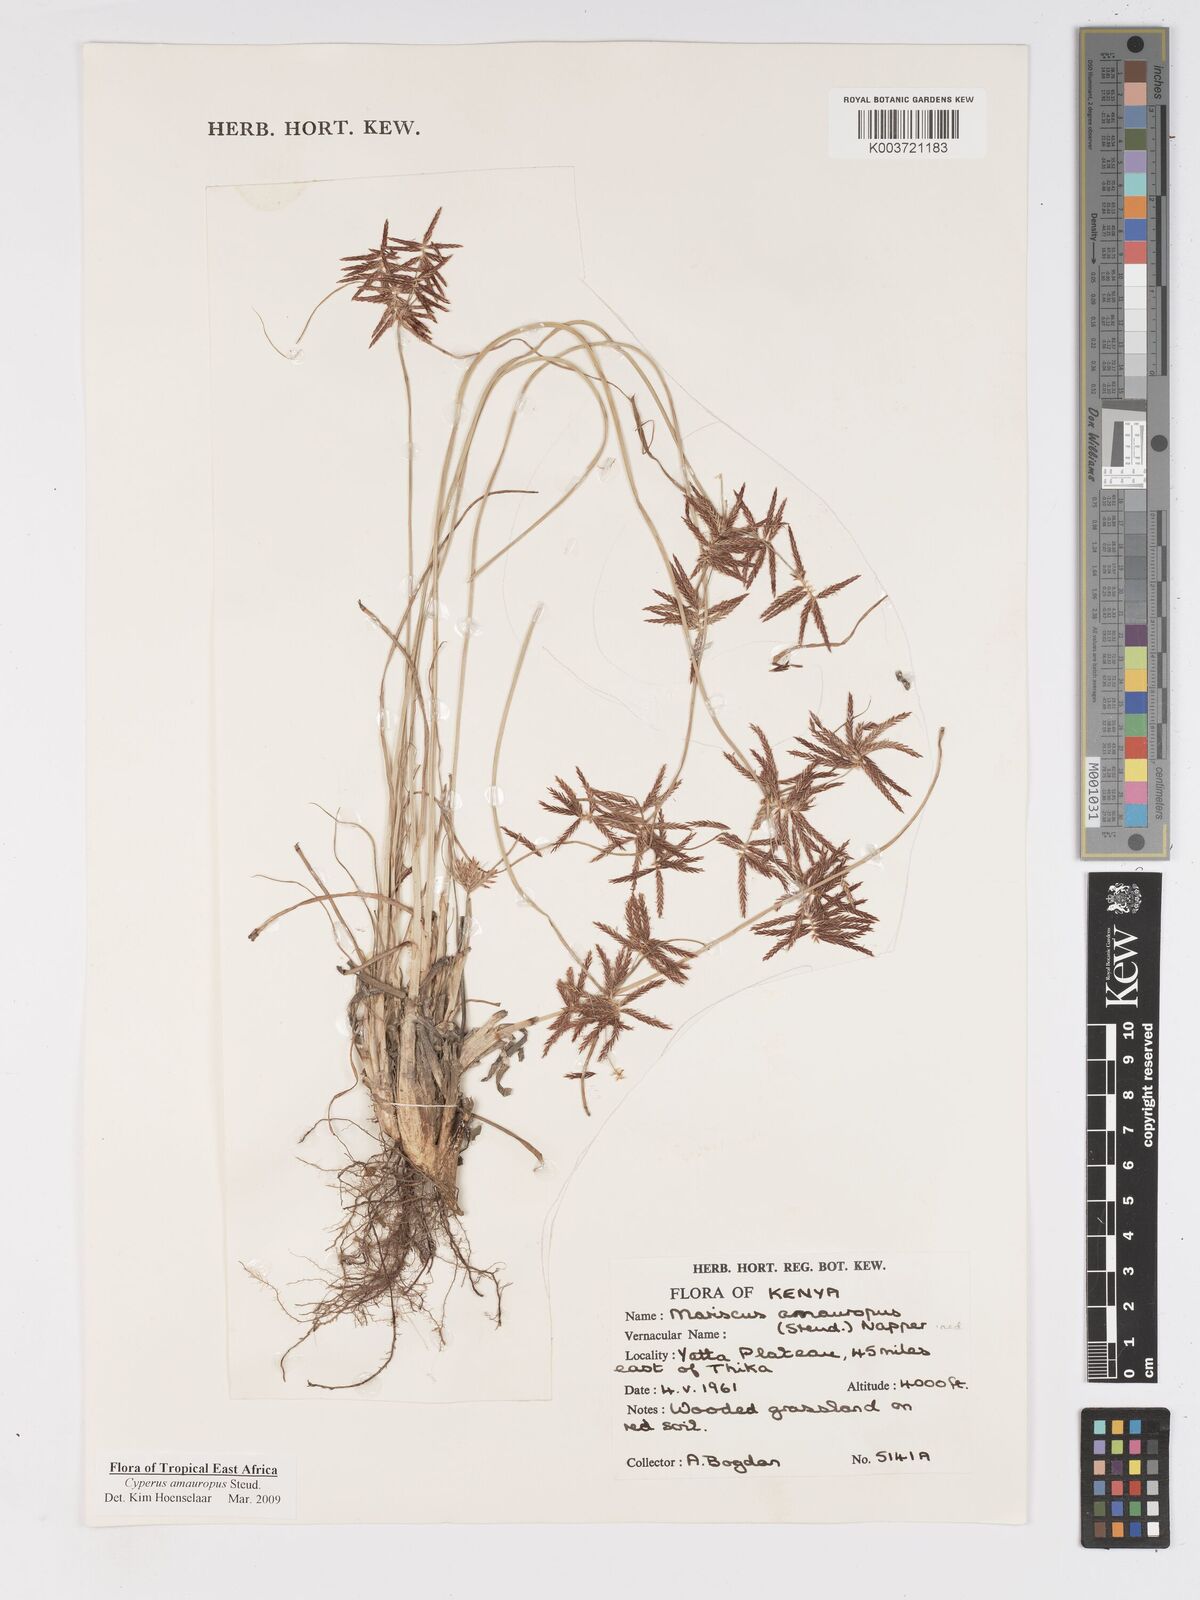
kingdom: Plantae
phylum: Tracheophyta
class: Liliopsida
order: Poales
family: Cyperaceae
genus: Cyperus
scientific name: Cyperus amauropus
